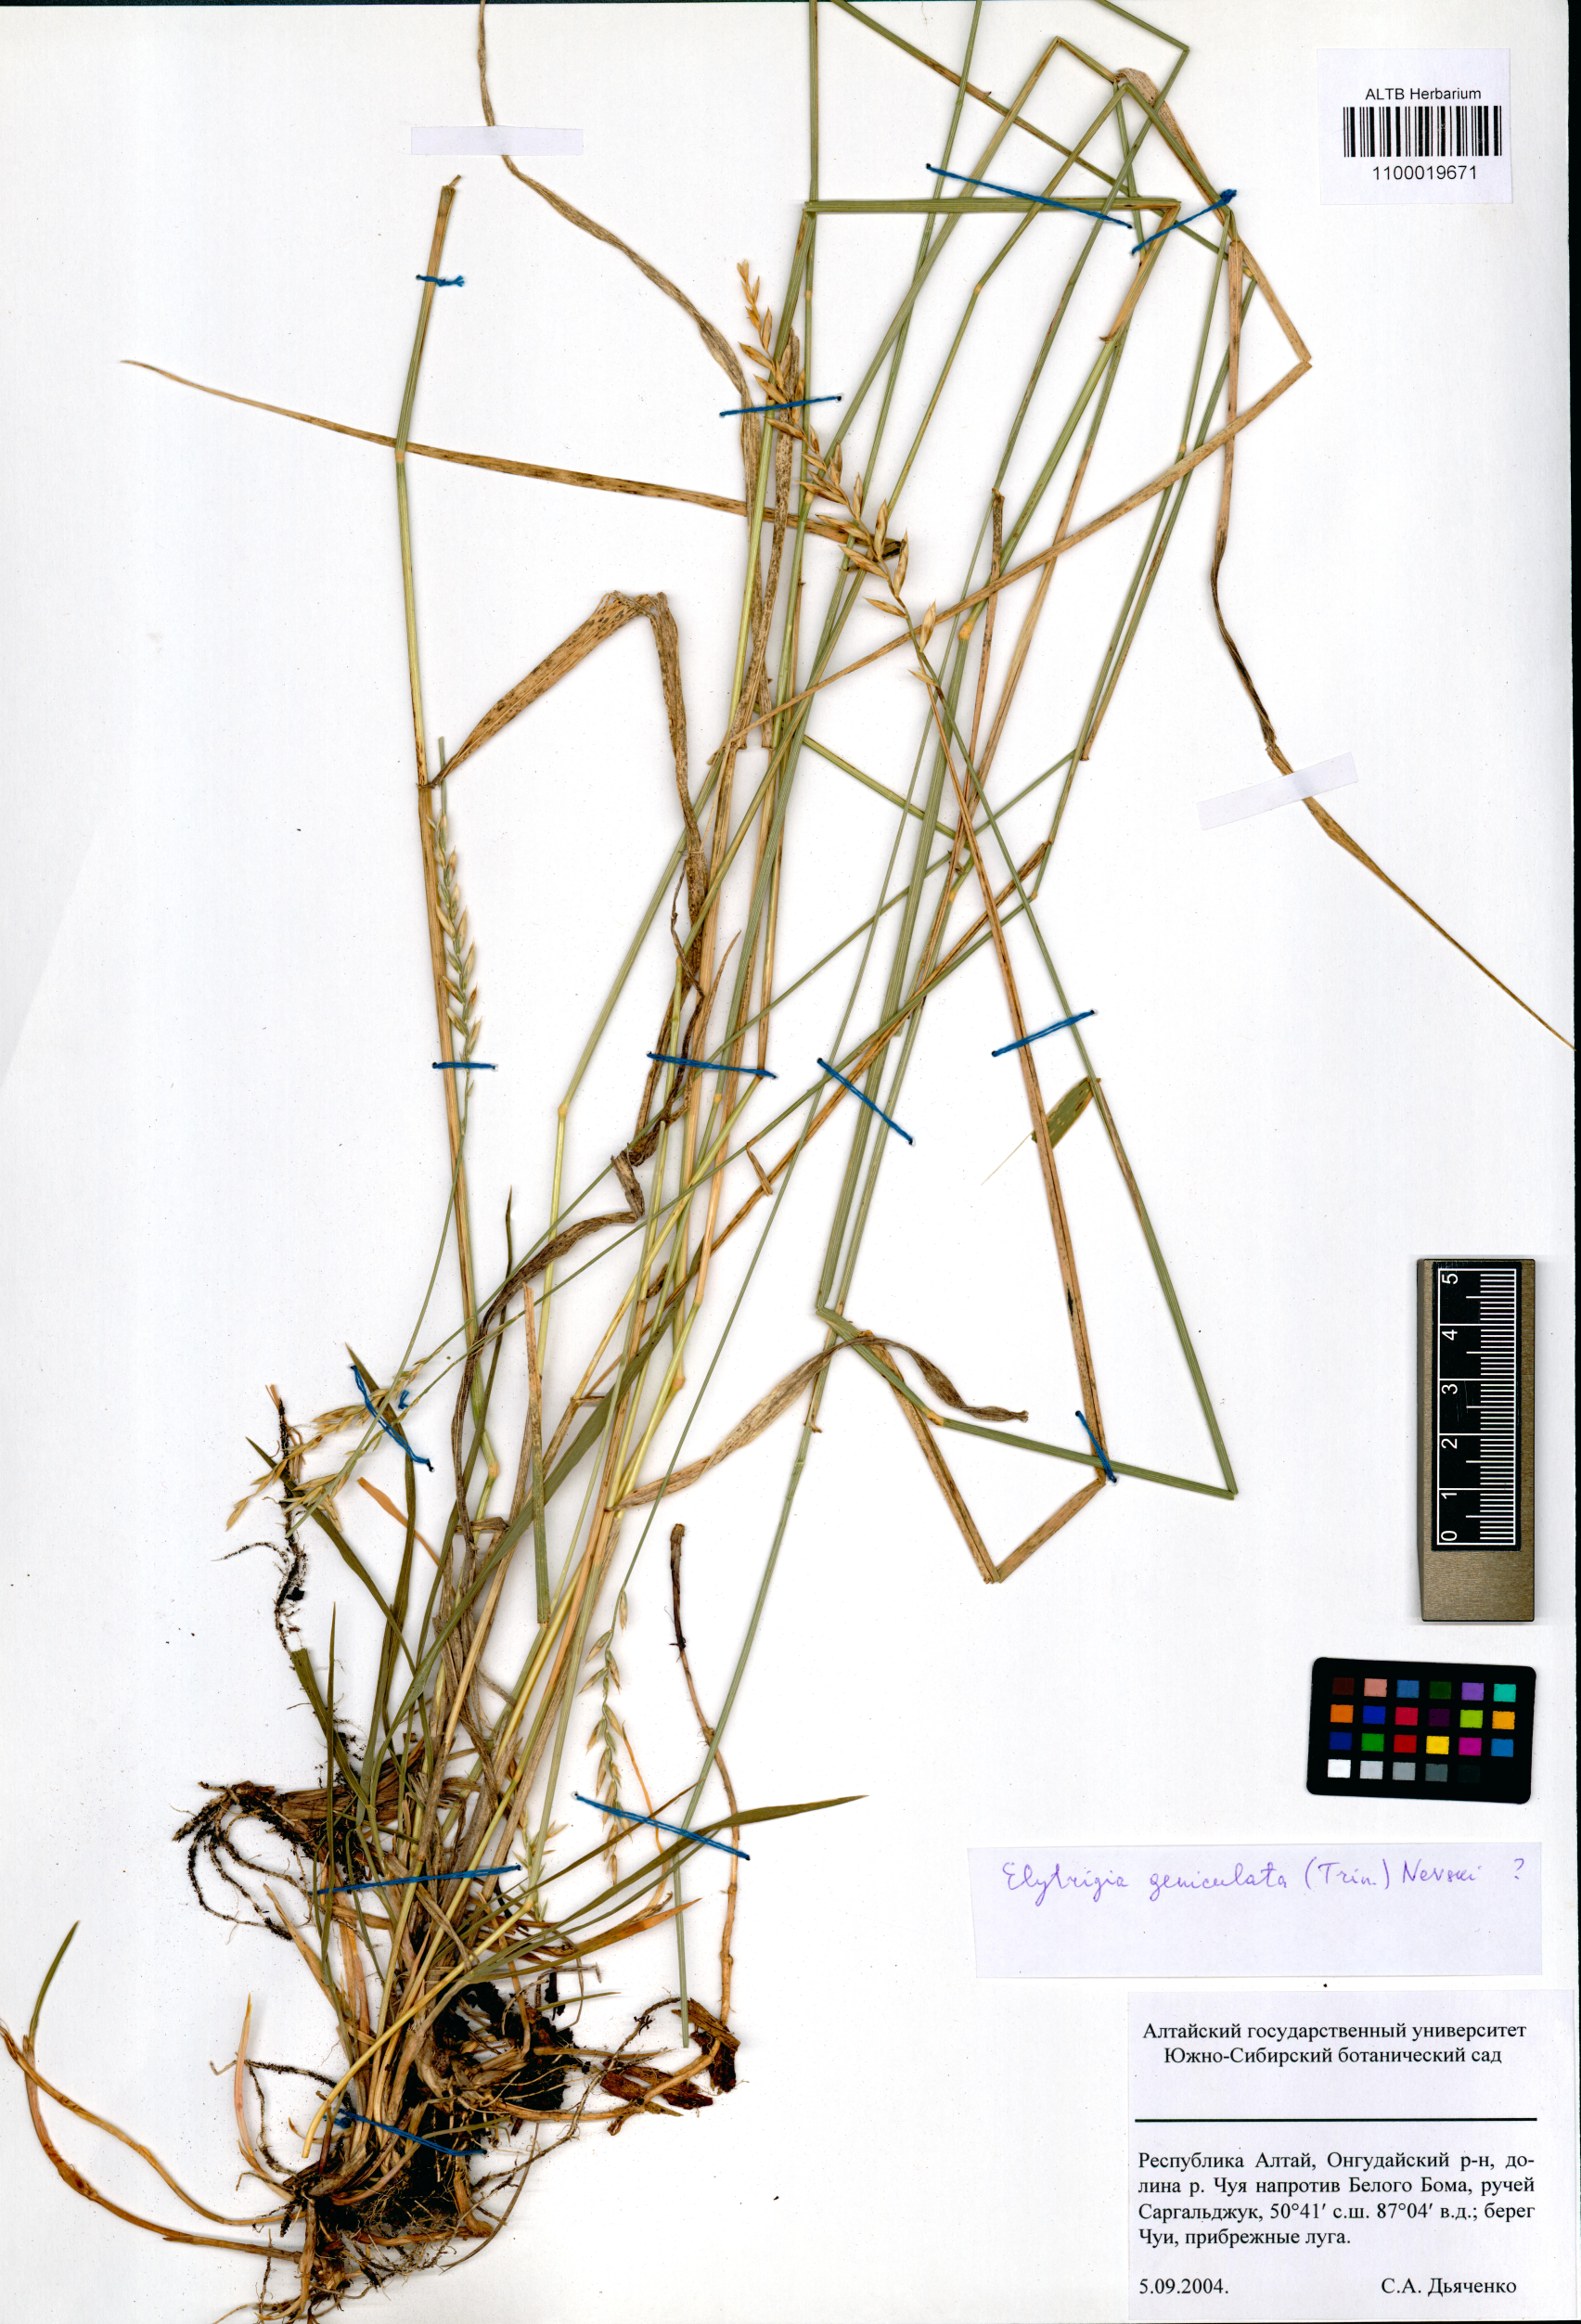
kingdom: Plantae
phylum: Tracheophyta
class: Liliopsida
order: Poales
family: Poaceae
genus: Pseudoroegneria
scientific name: Pseudoroegneria geniculata
